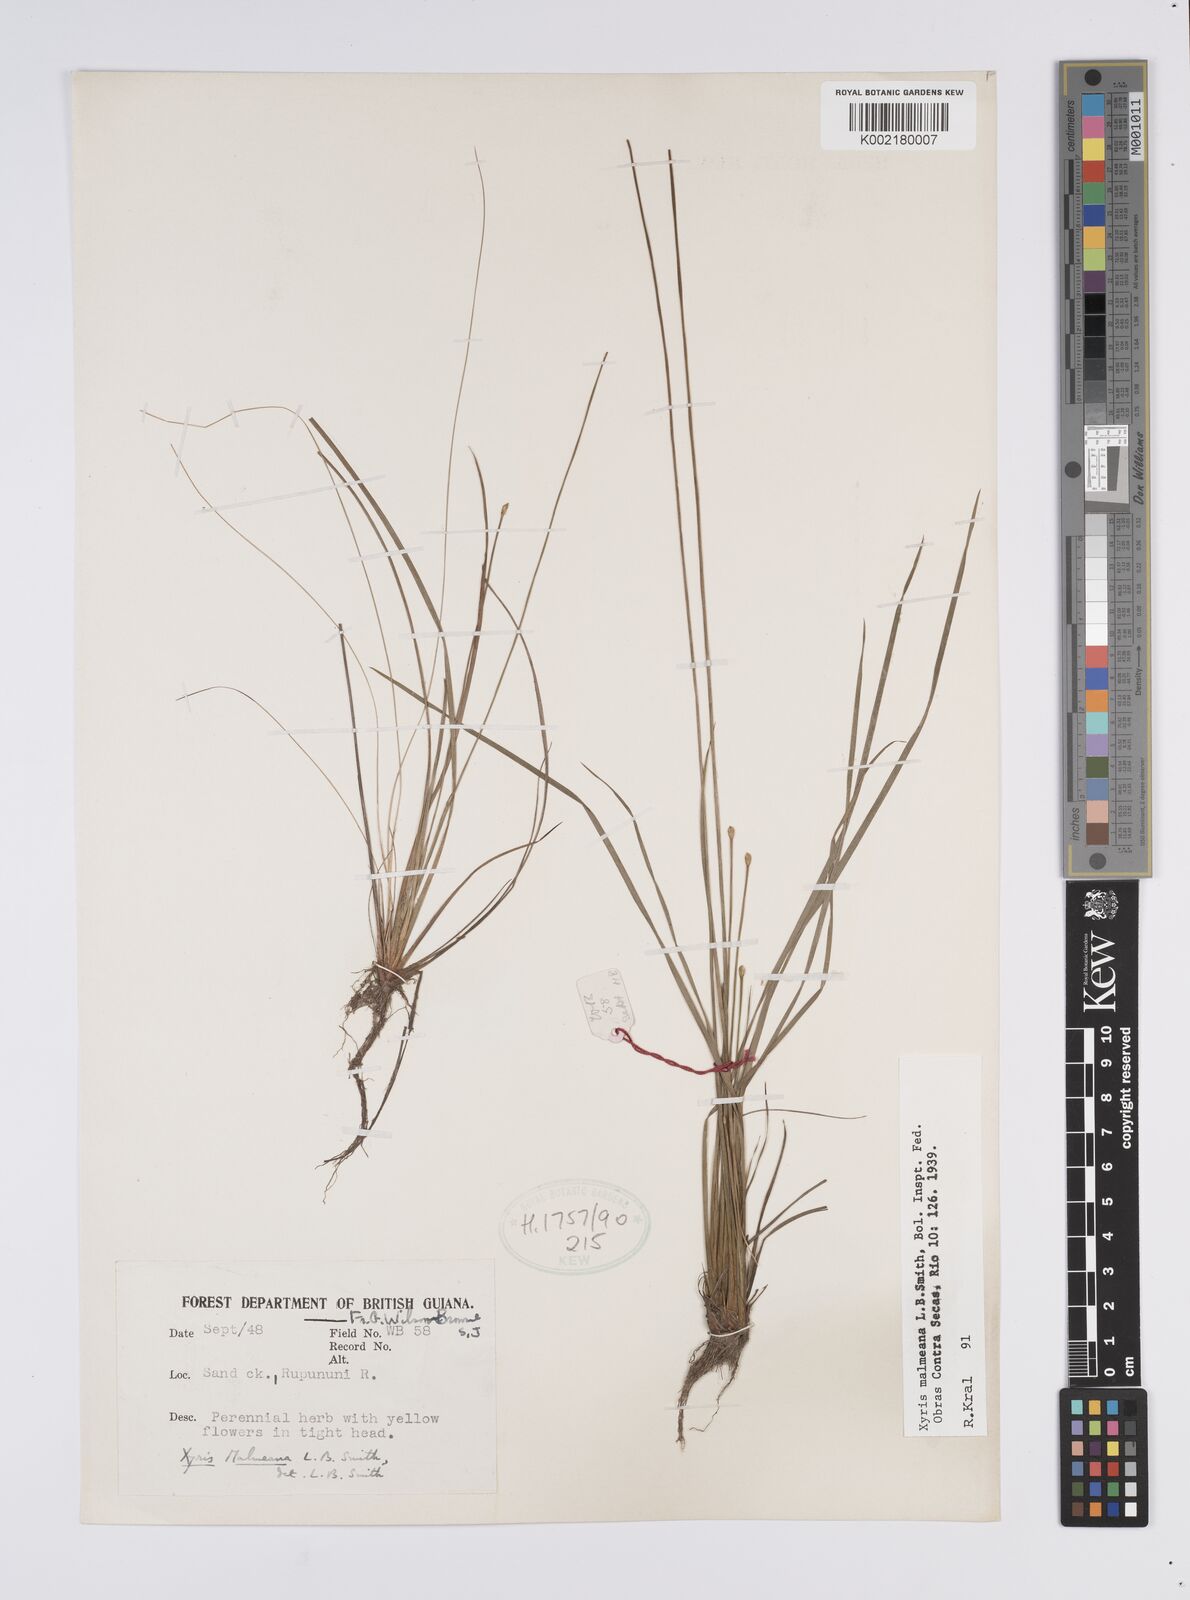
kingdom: Plantae
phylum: Tracheophyta
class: Liliopsida
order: Poales
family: Xyridaceae
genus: Xyris
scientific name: Xyris malmeana
